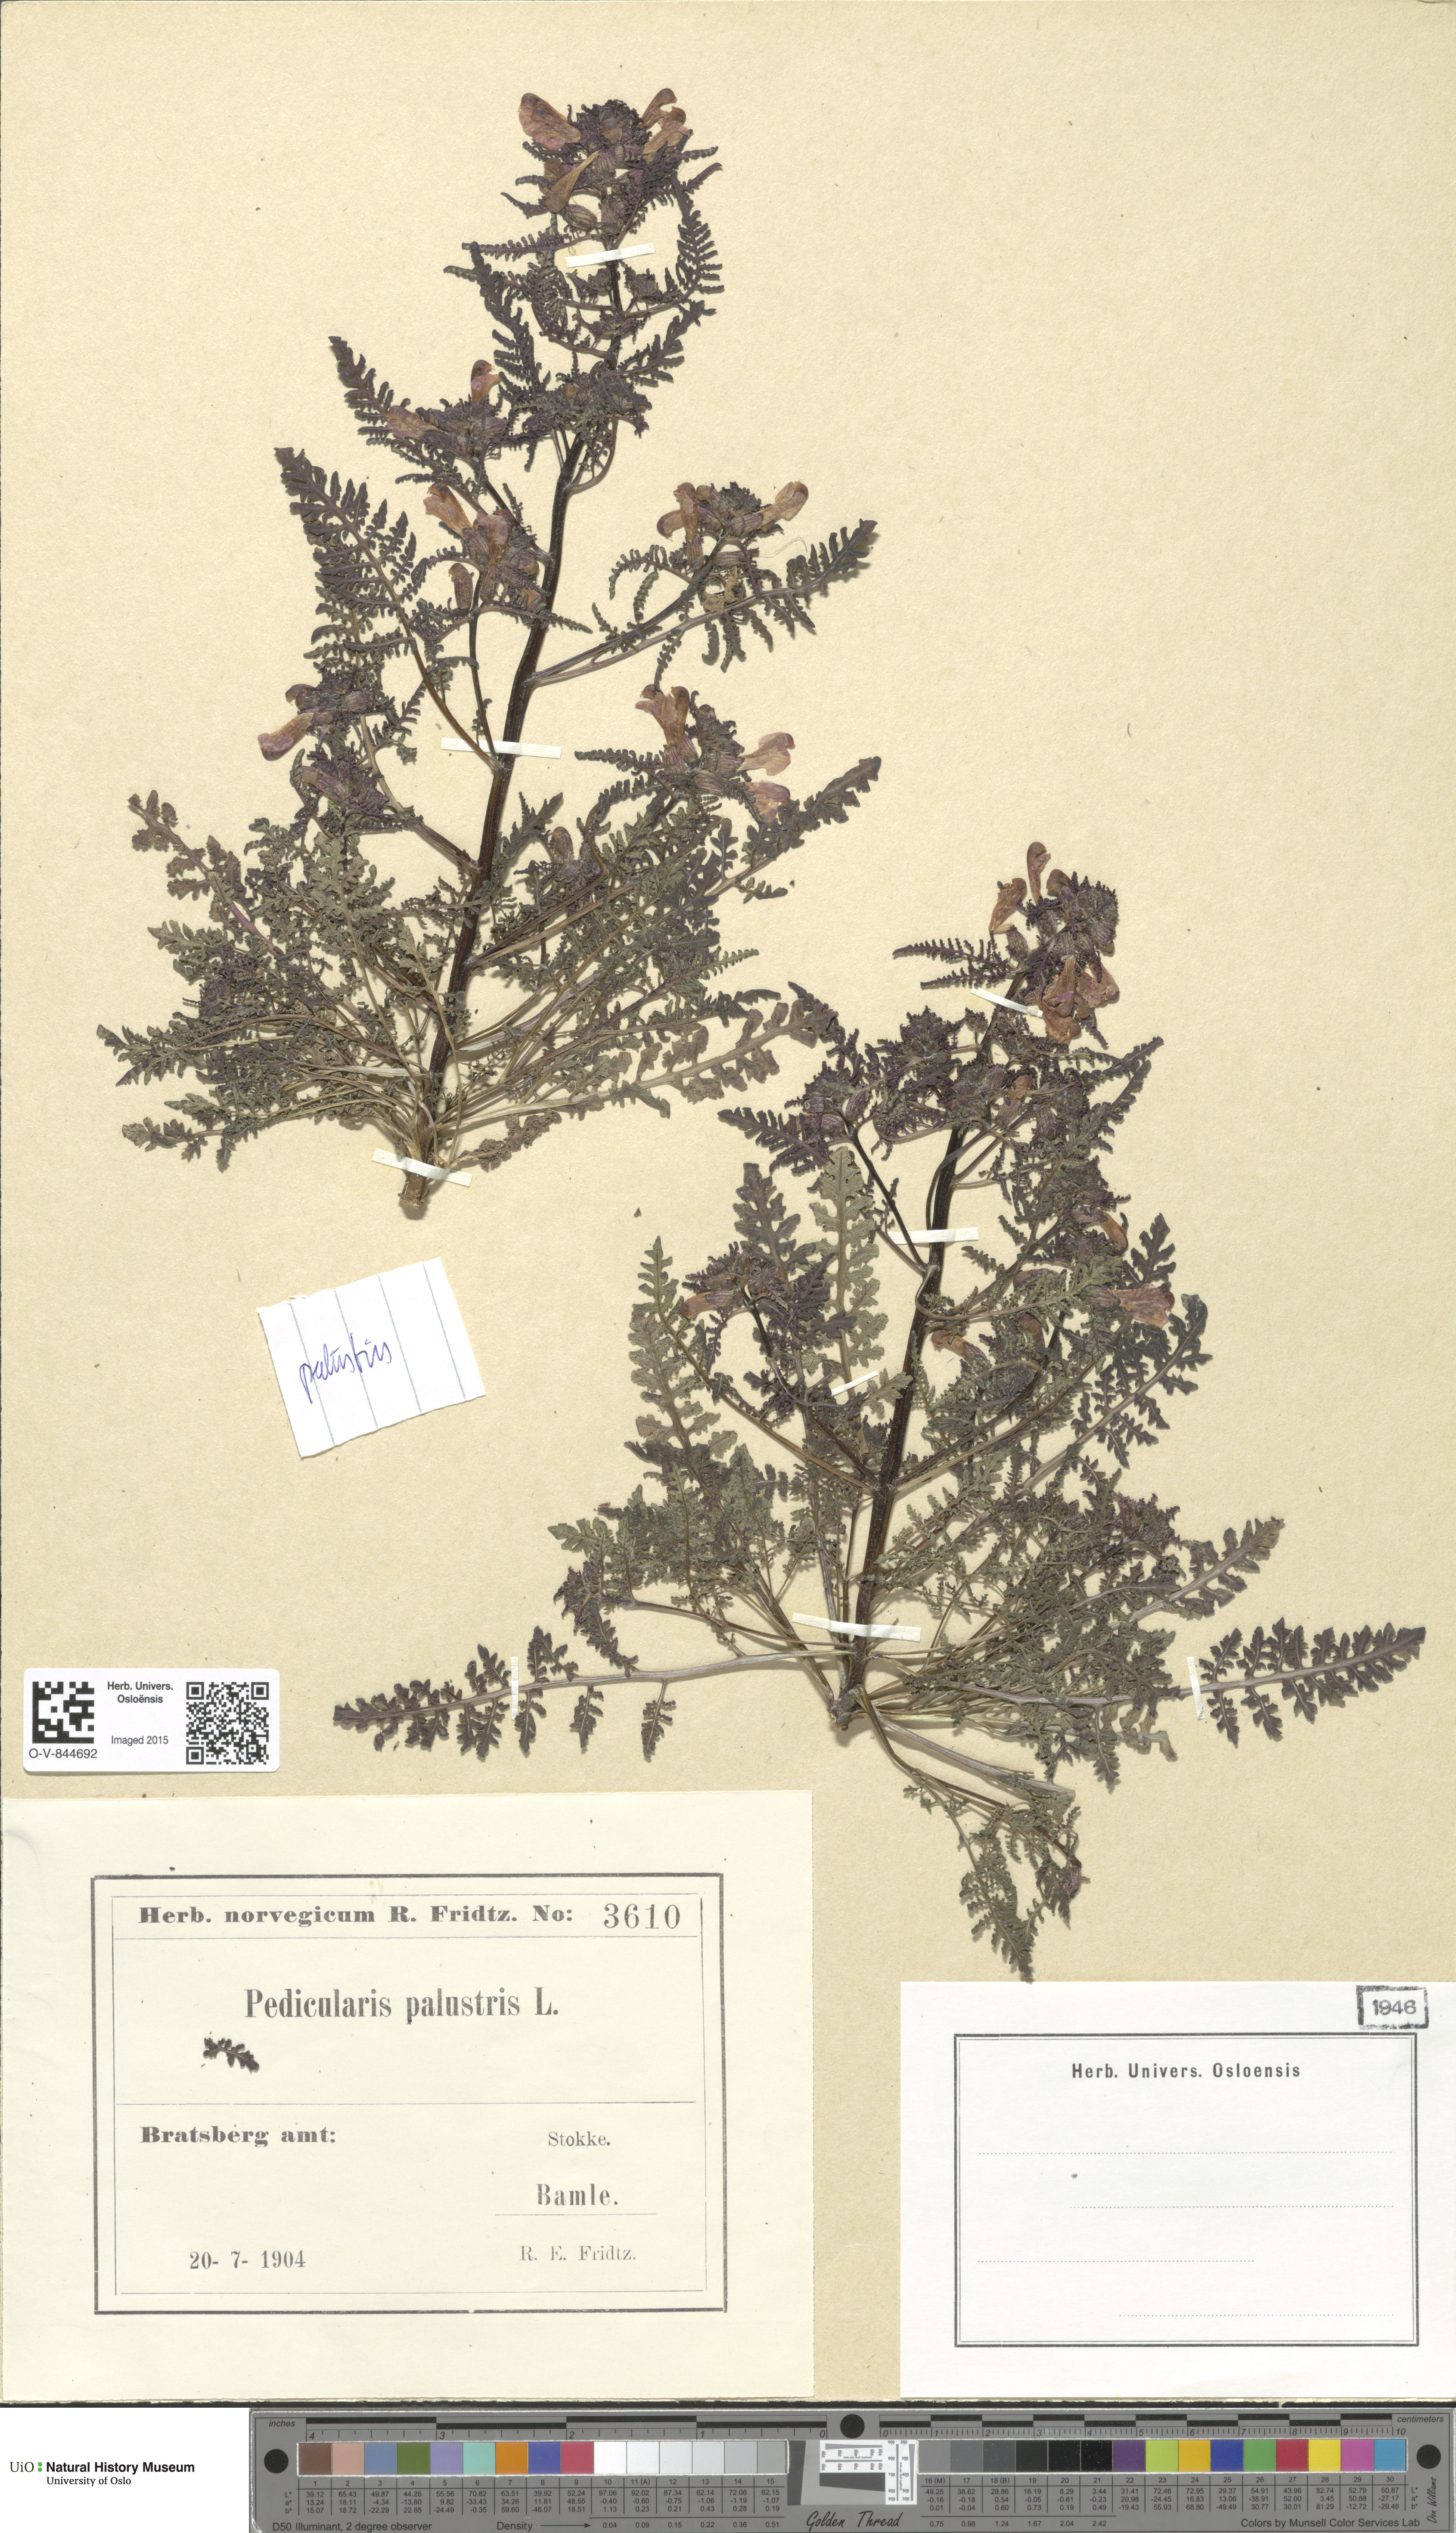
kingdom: Plantae
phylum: Tracheophyta
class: Magnoliopsida
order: Lamiales
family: Orobanchaceae
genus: Pedicularis
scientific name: Pedicularis palustris
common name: Marsh lousewort
